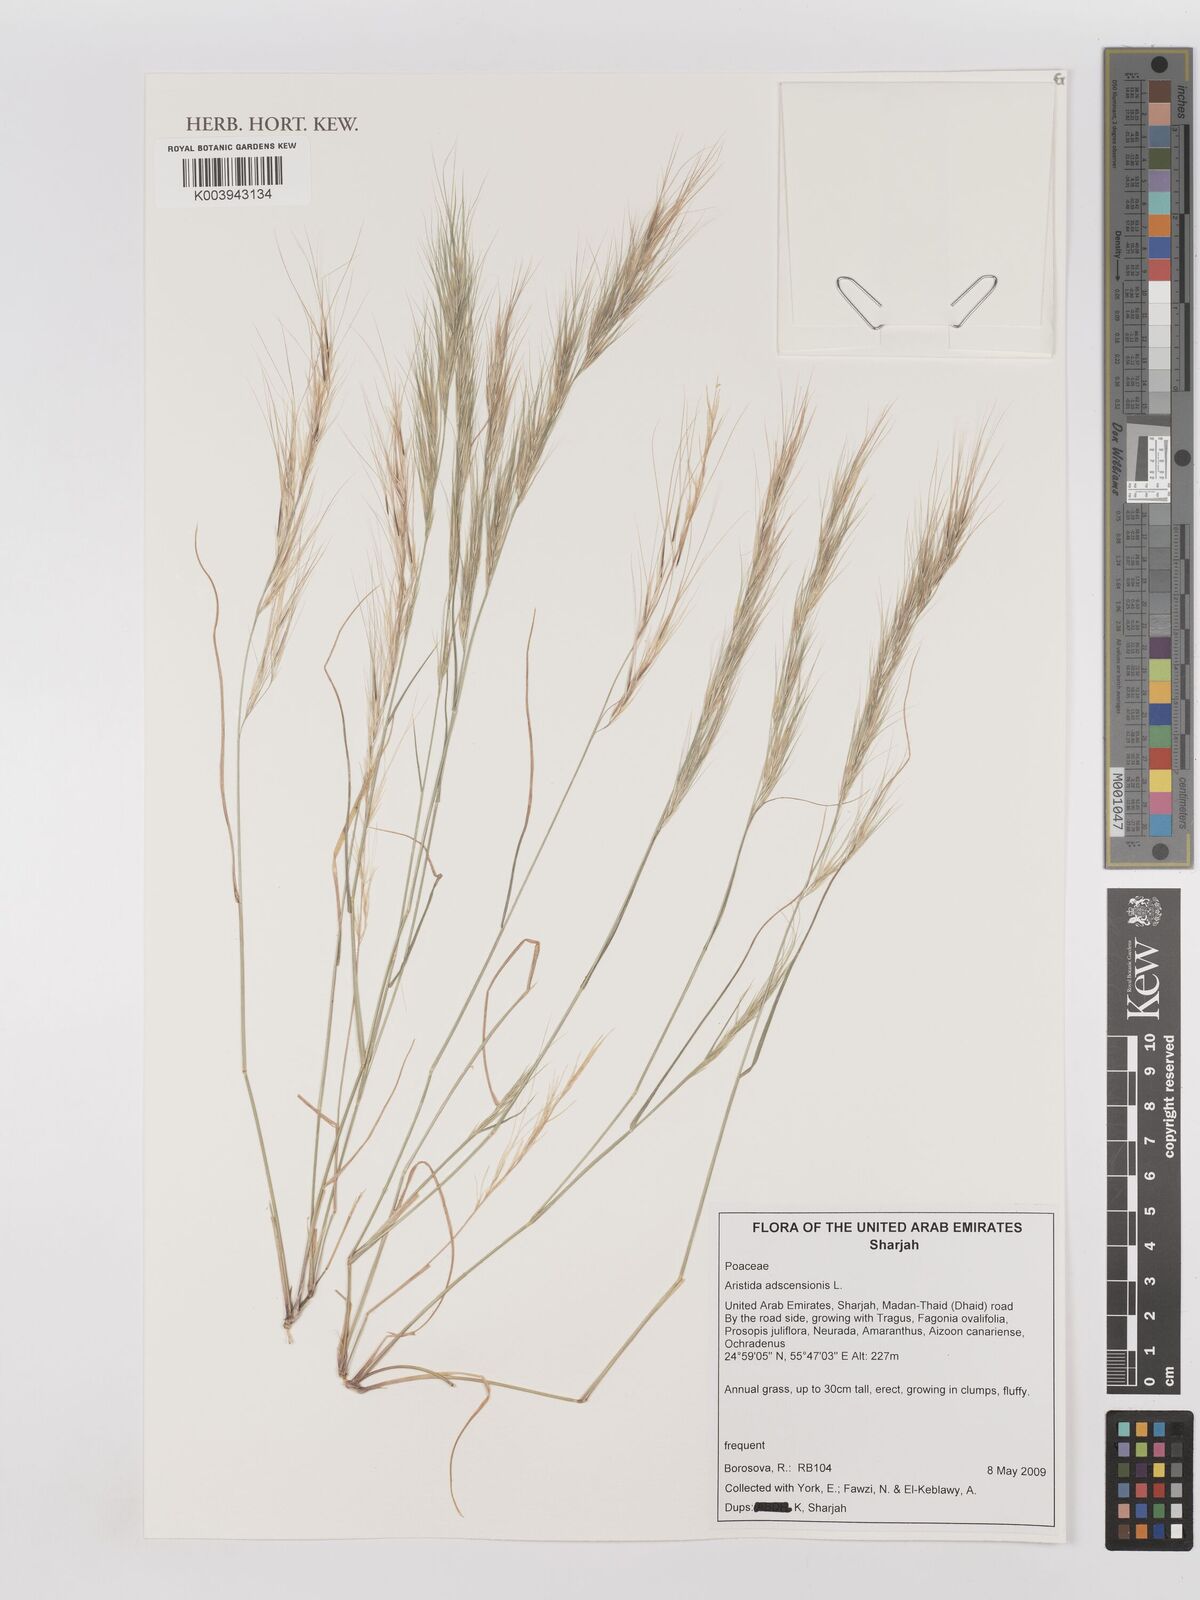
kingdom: Plantae
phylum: Tracheophyta
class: Liliopsida
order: Poales
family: Poaceae
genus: Aristida
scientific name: Aristida adscensionis
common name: Sixweeks threeawn
